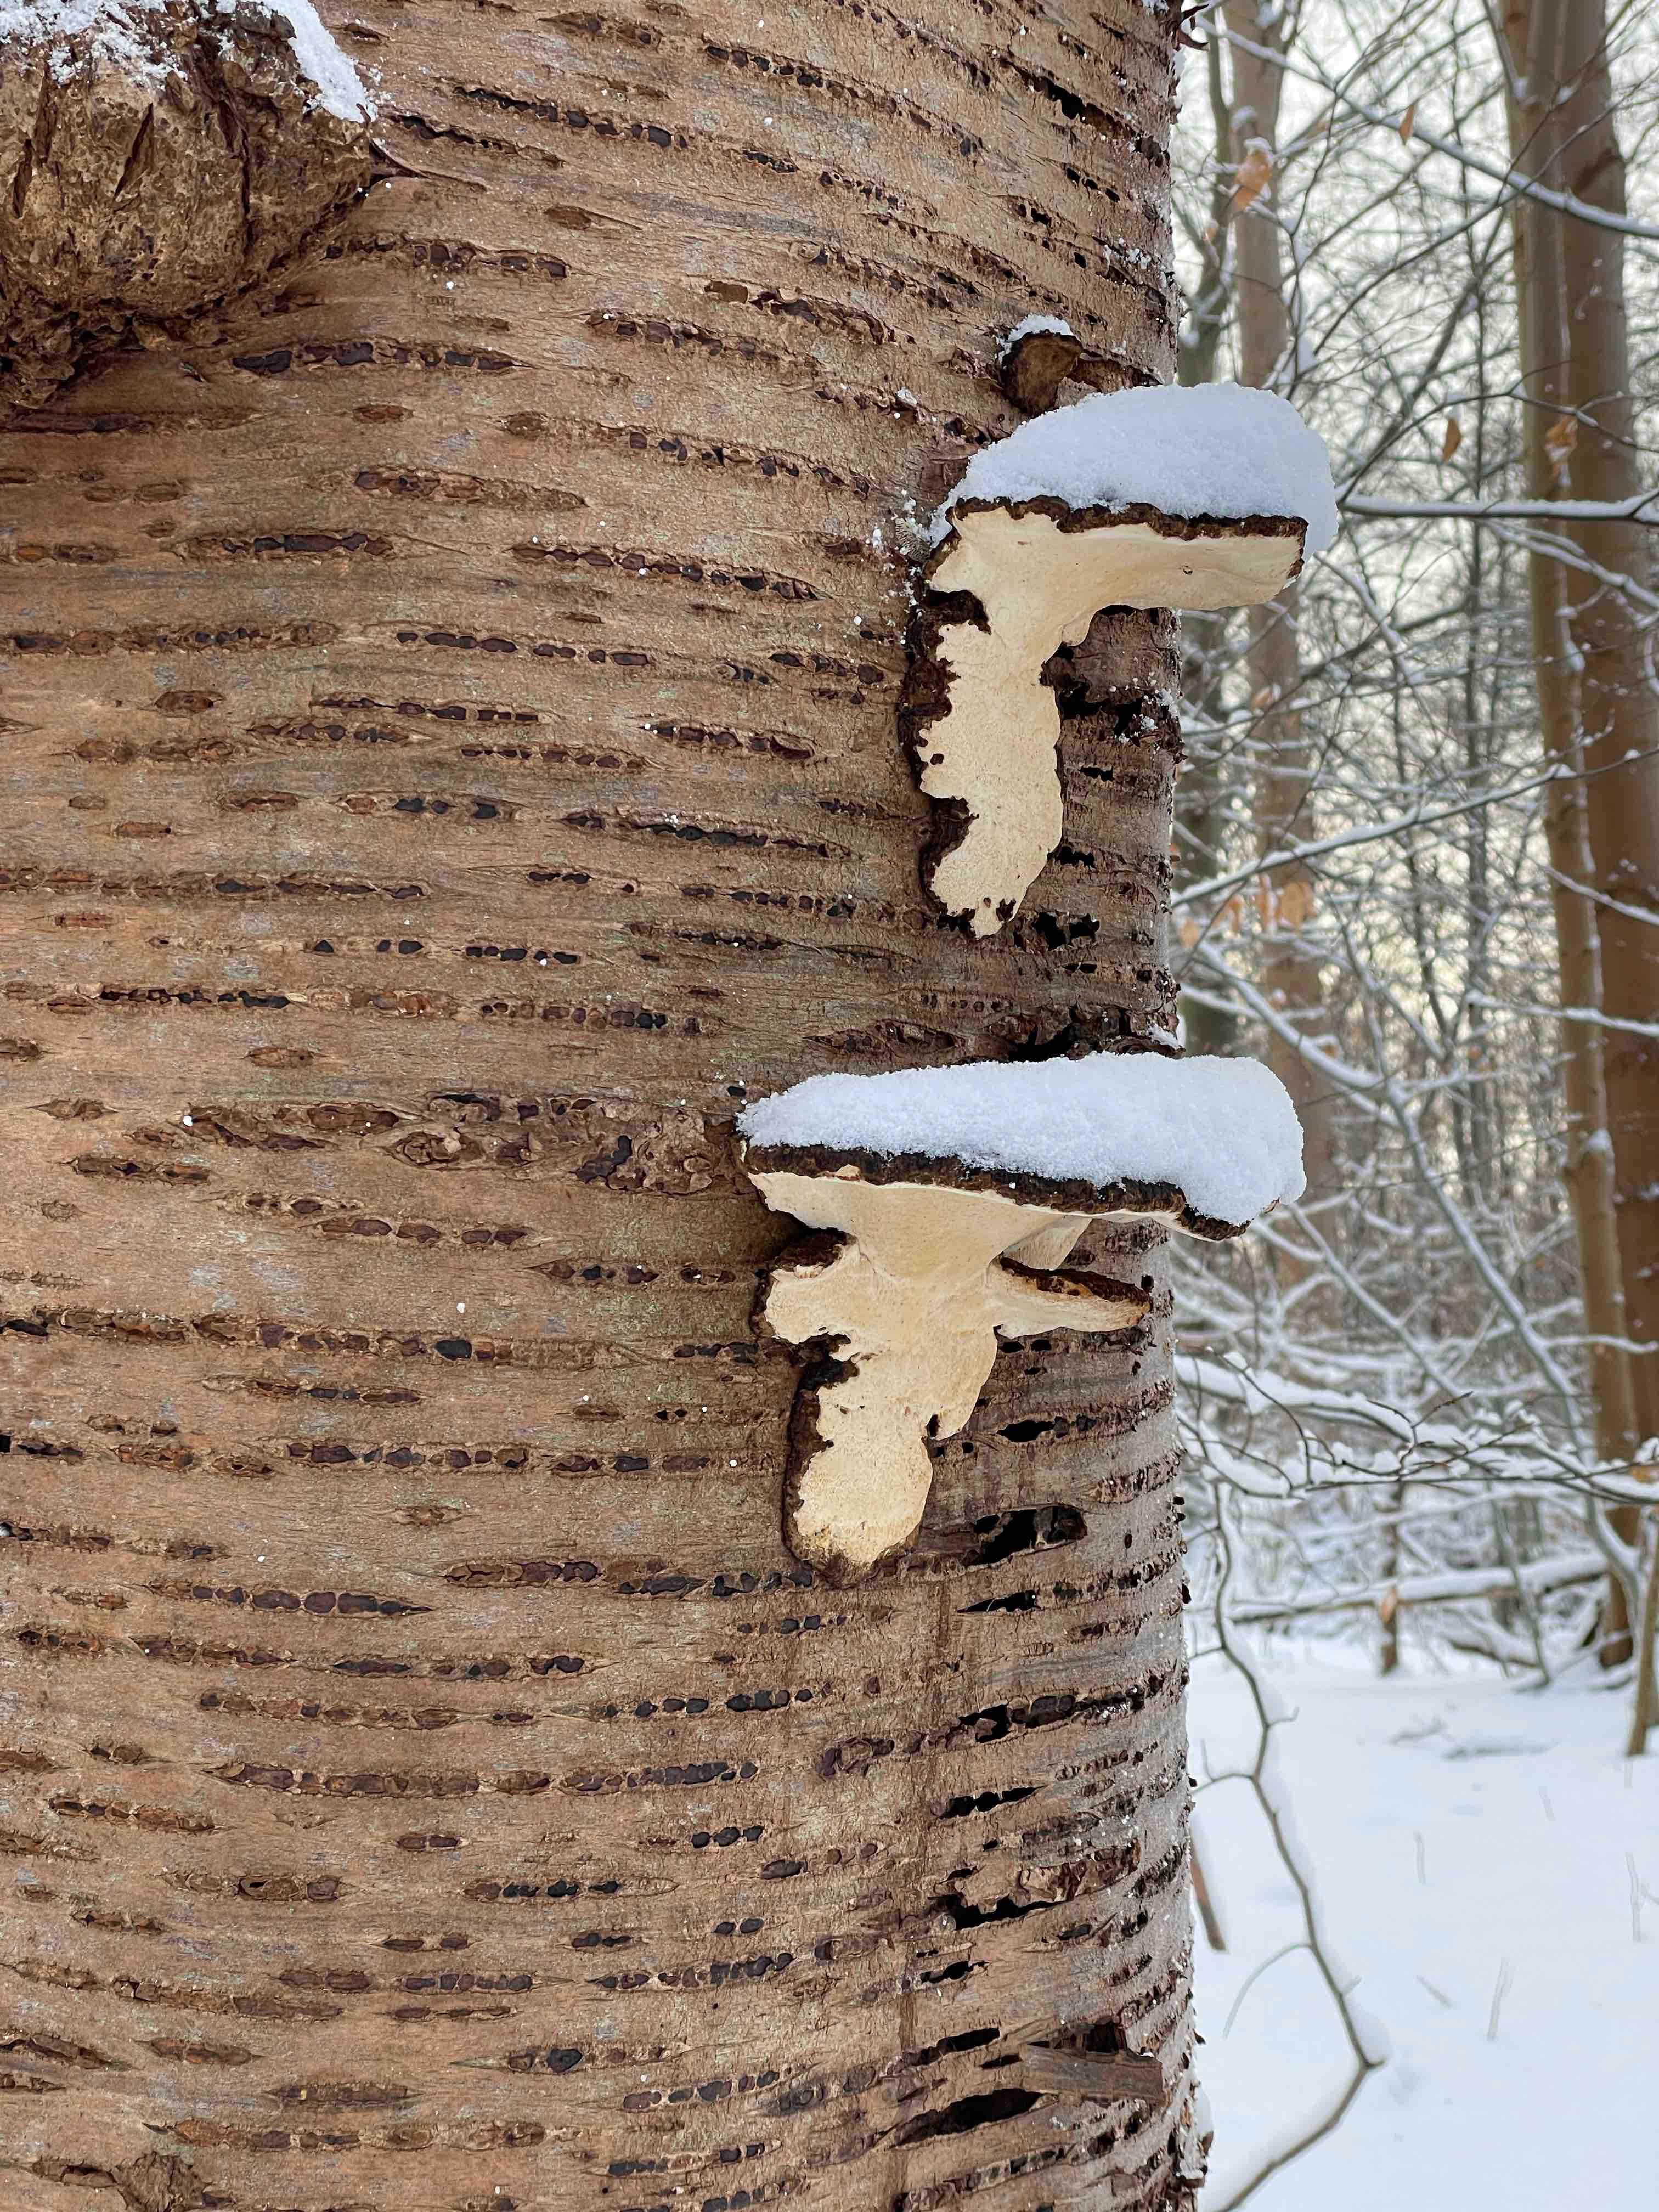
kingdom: Fungi
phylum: Basidiomycota
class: Agaricomycetes
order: Polyporales
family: Ischnodermataceae
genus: Ischnoderma
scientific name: Ischnoderma resinosum
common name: løv-tjæreporesvamp
